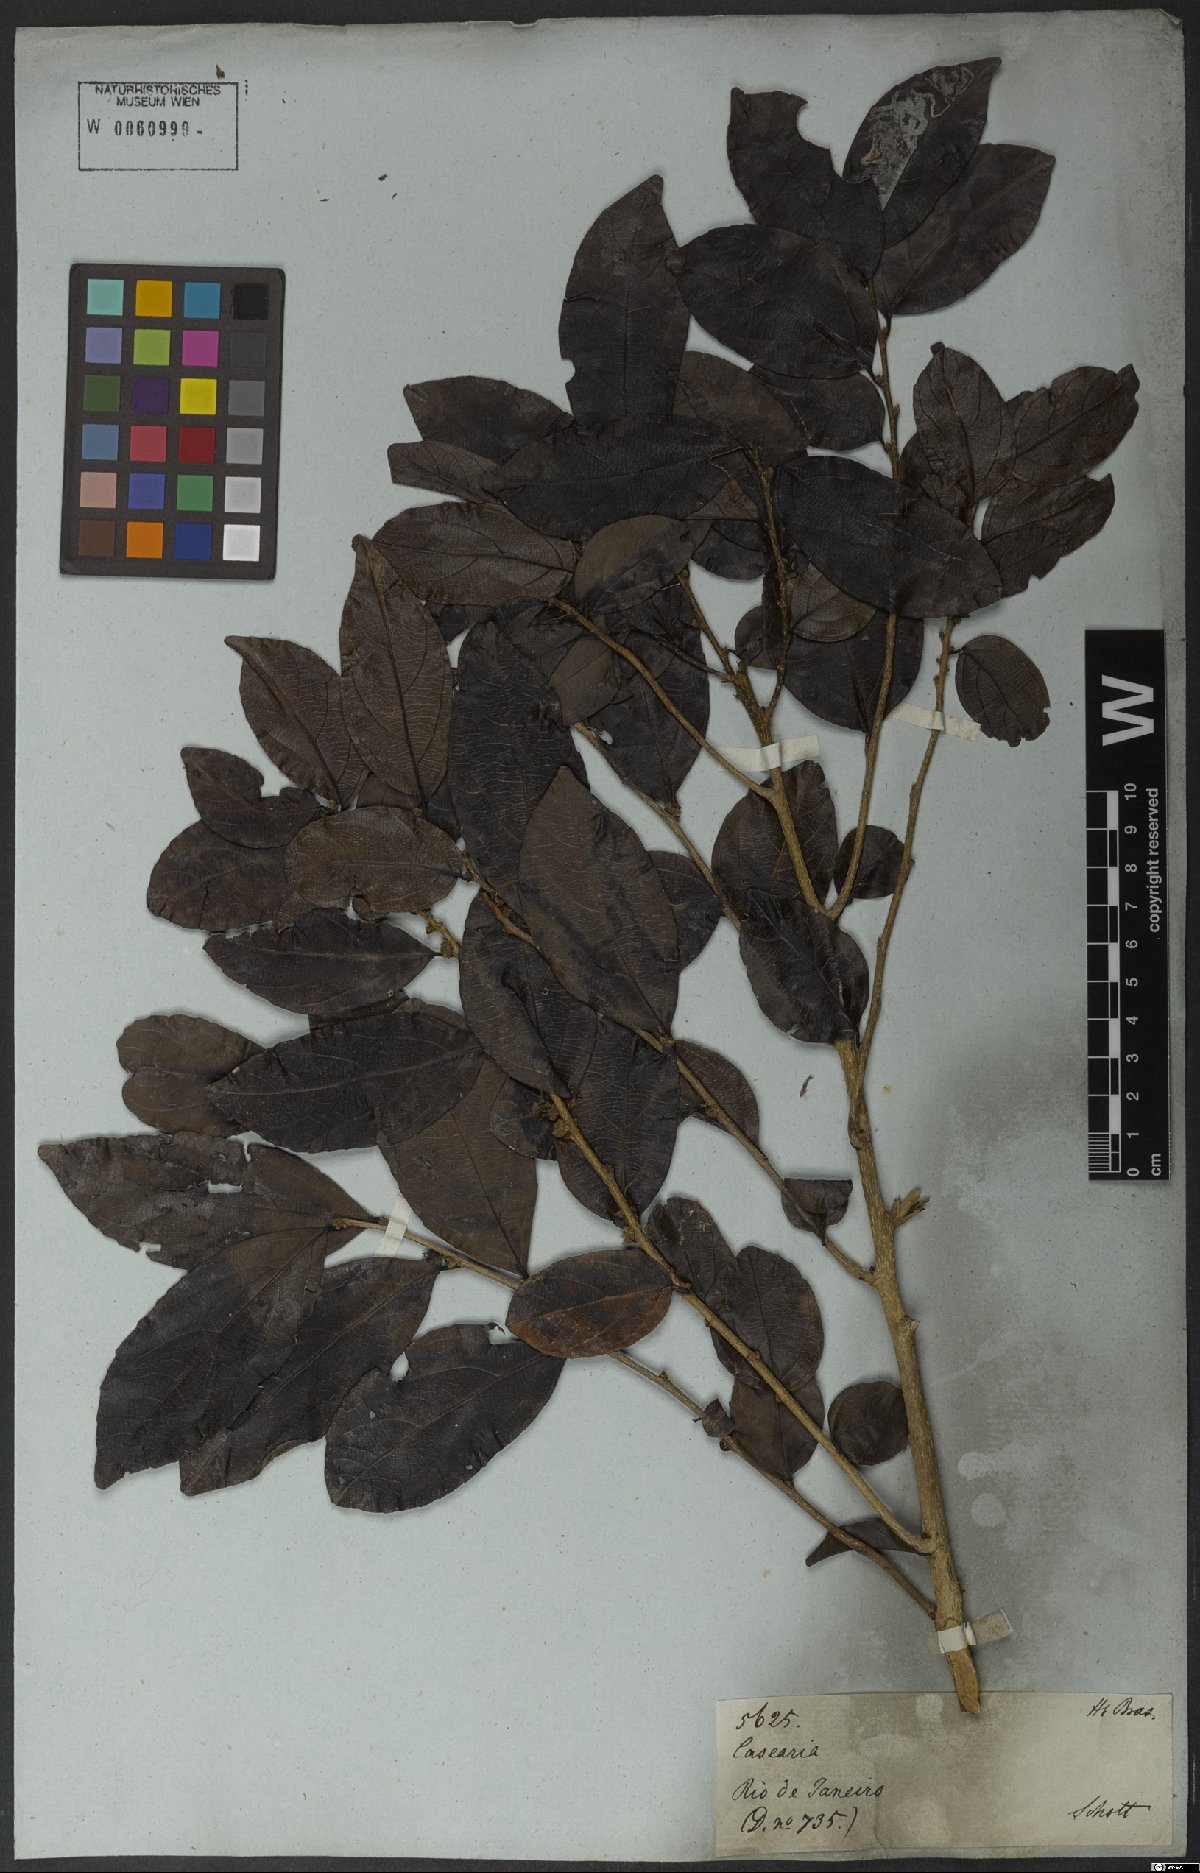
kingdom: Plantae
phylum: Tracheophyta
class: Magnoliopsida
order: Malpighiales
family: Salicaceae
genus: Piparea
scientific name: Piparea dentata
